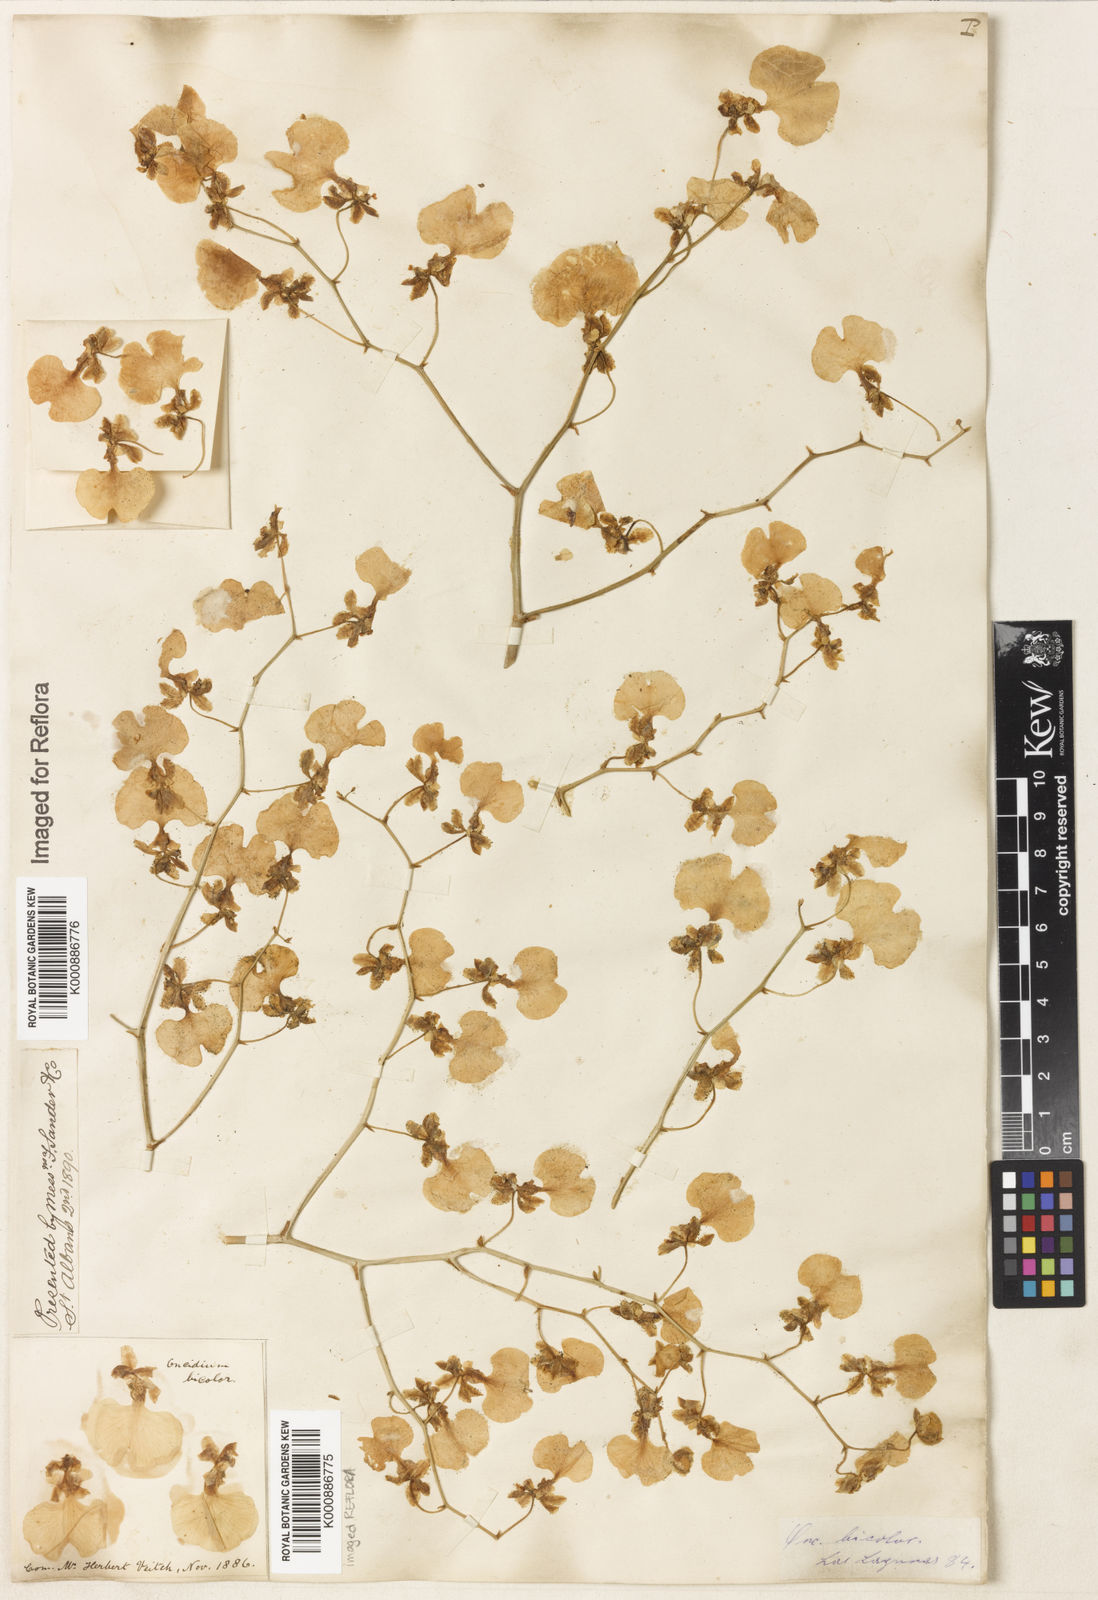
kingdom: Plantae
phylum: Tracheophyta
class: Liliopsida
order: Asparagales
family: Orchidaceae
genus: Gomesa
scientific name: Gomesa bicolor
